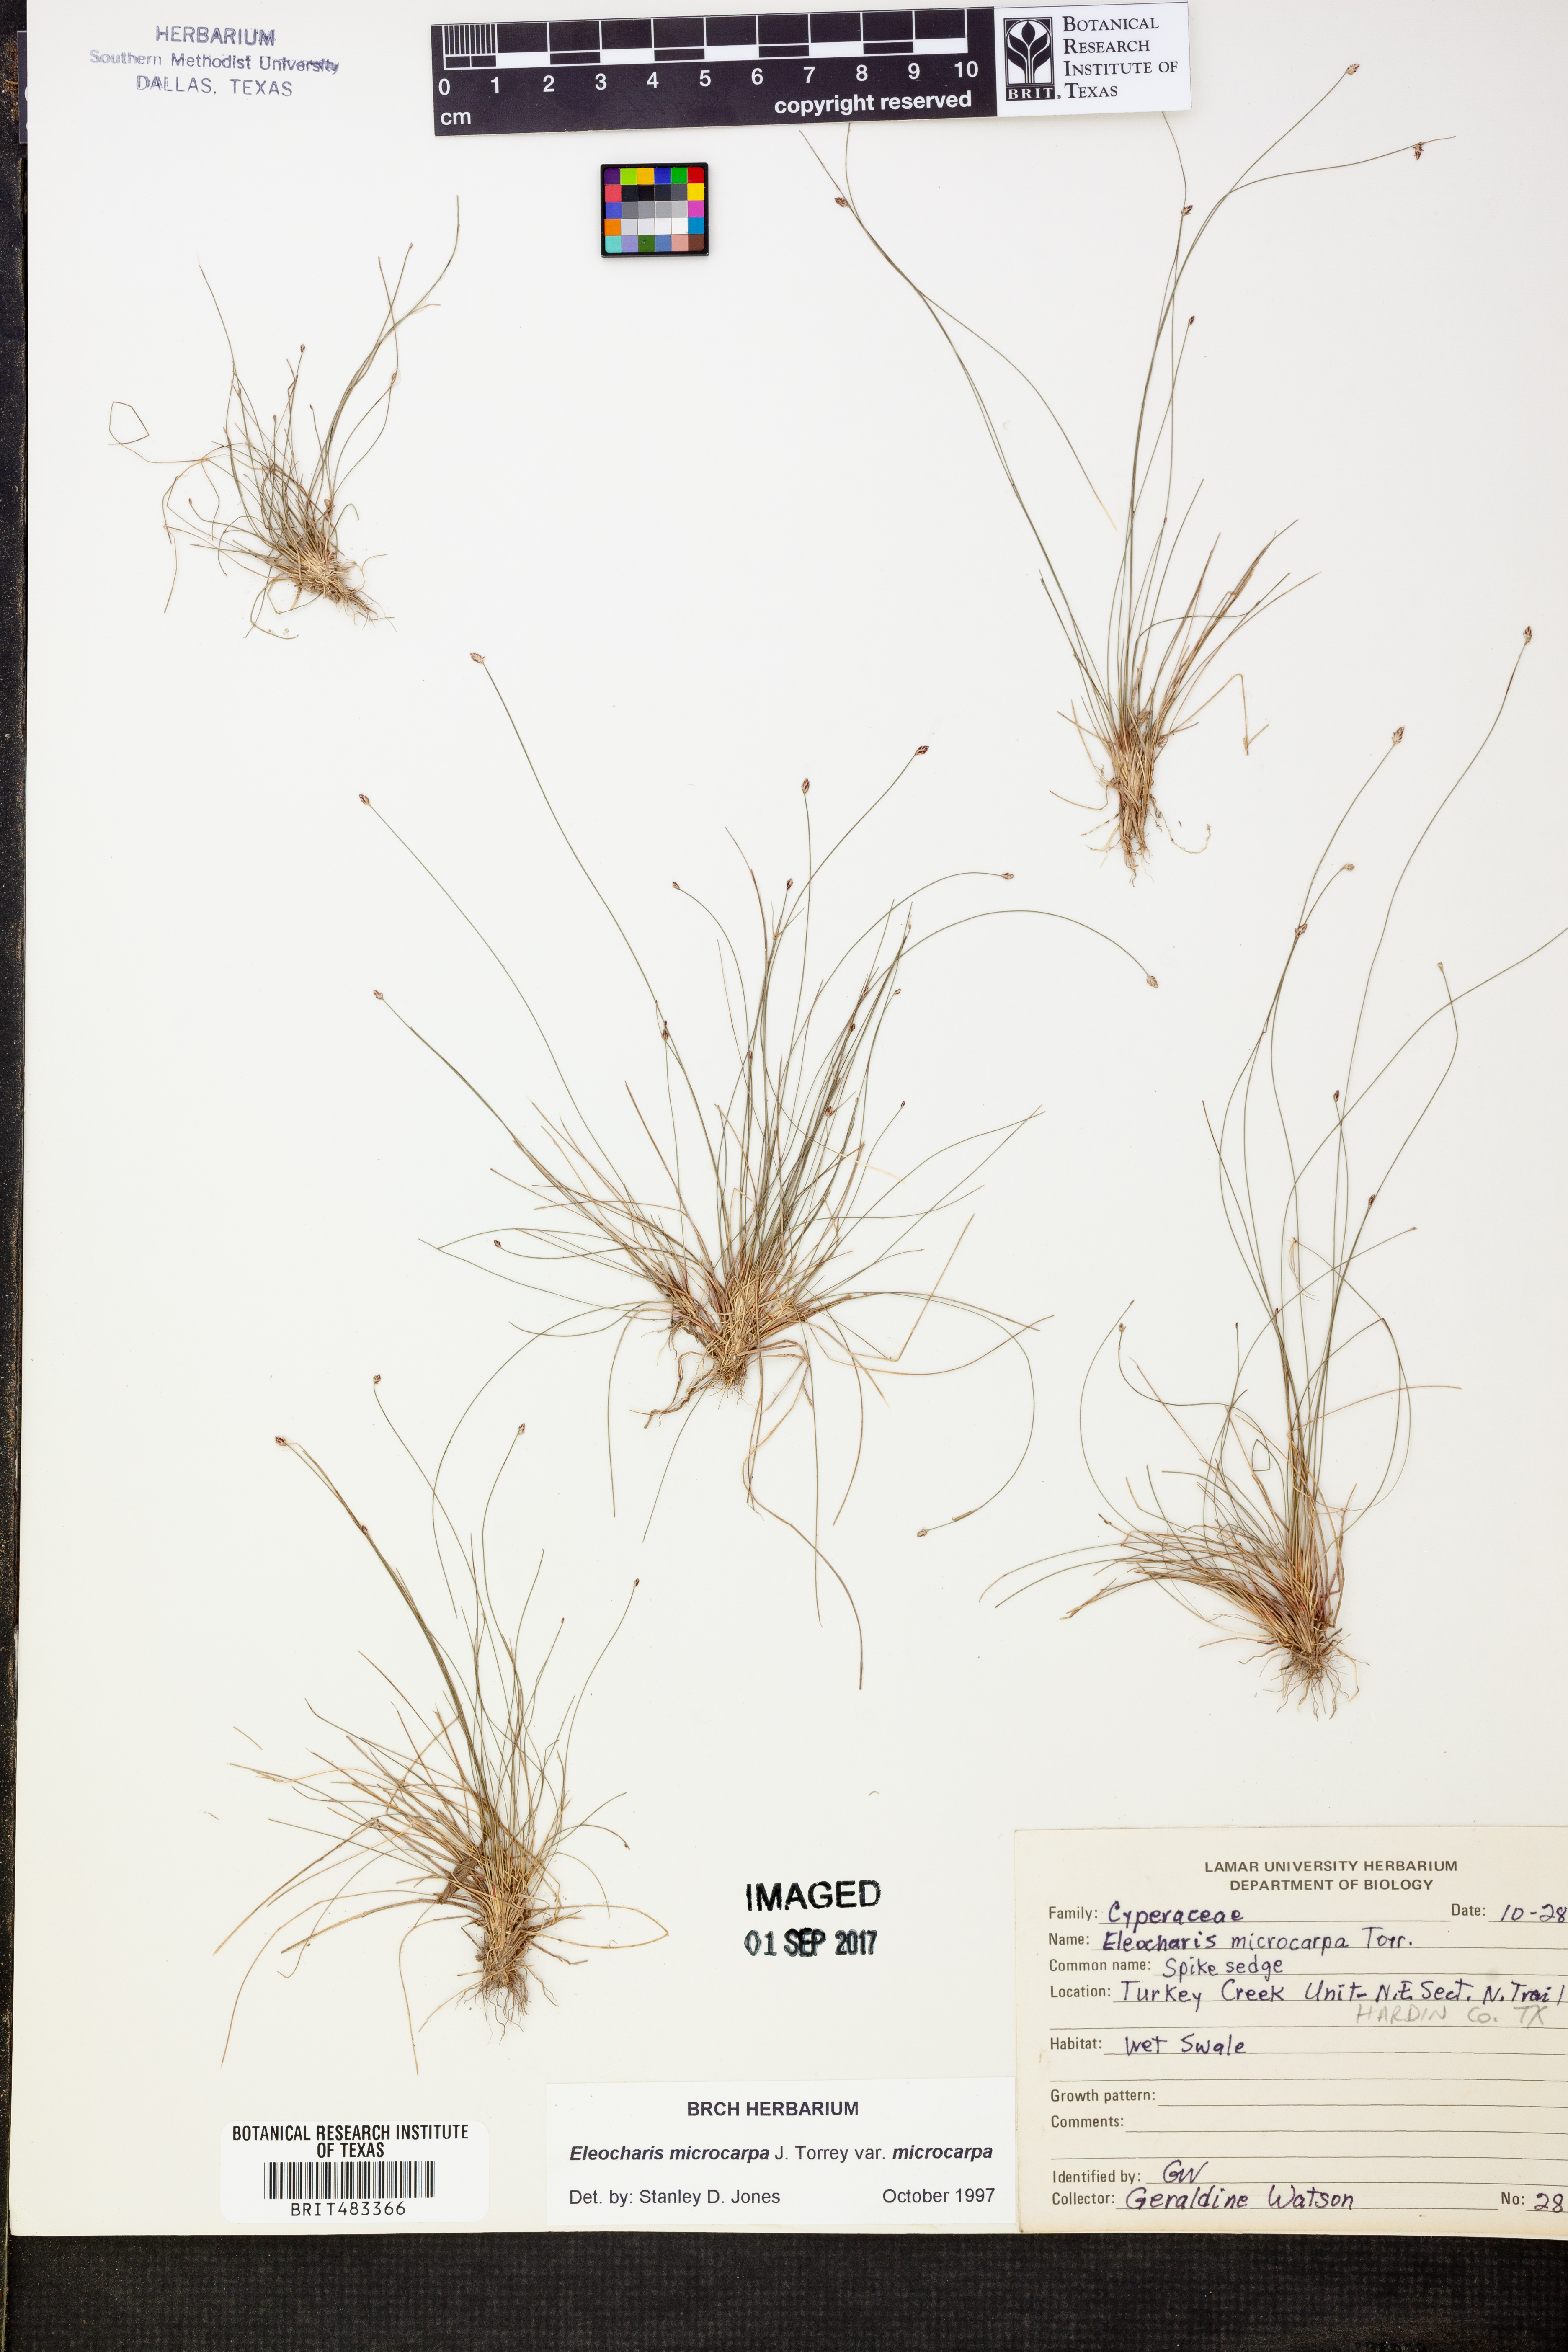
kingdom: Plantae
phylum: Tracheophyta
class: Liliopsida
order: Poales
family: Cyperaceae
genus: Eleocharis
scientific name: Eleocharis microcarpa
